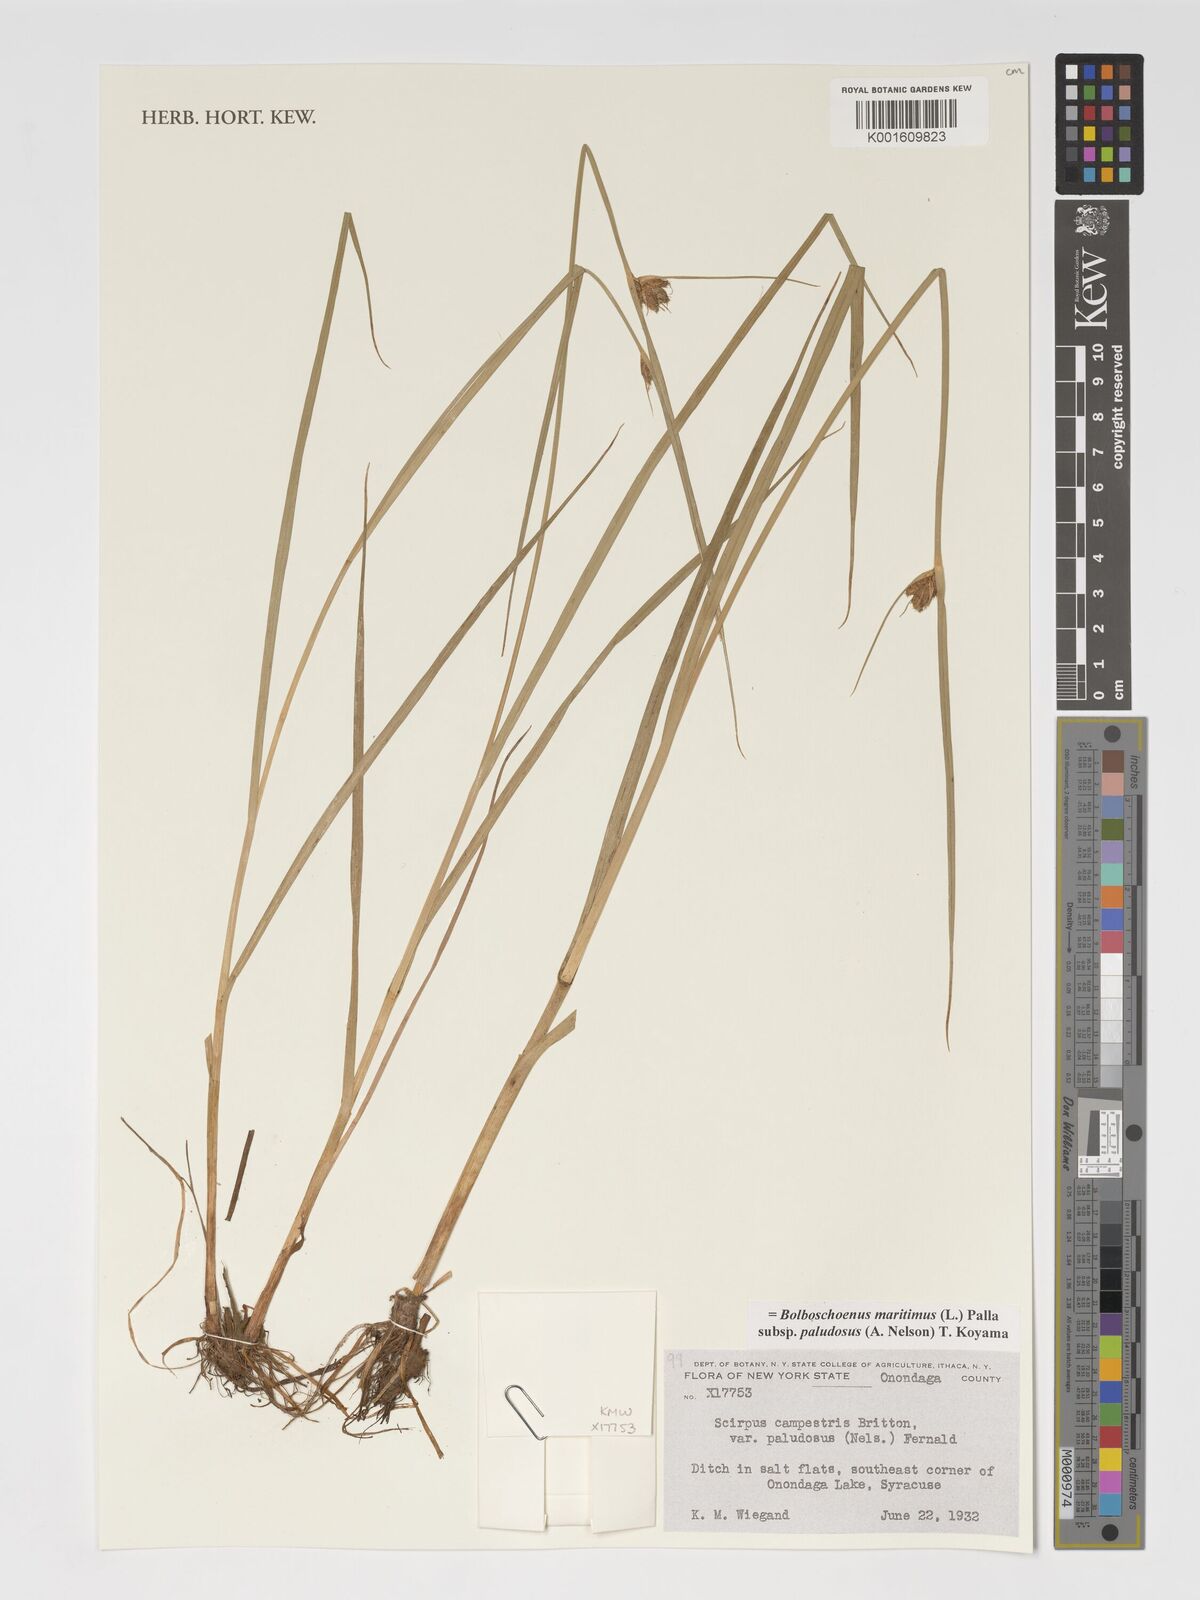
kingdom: Plantae
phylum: Tracheophyta
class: Liliopsida
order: Poales
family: Cyperaceae
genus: Bolboschoenus
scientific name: Bolboschoenus maritimus
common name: Sea club-rush
